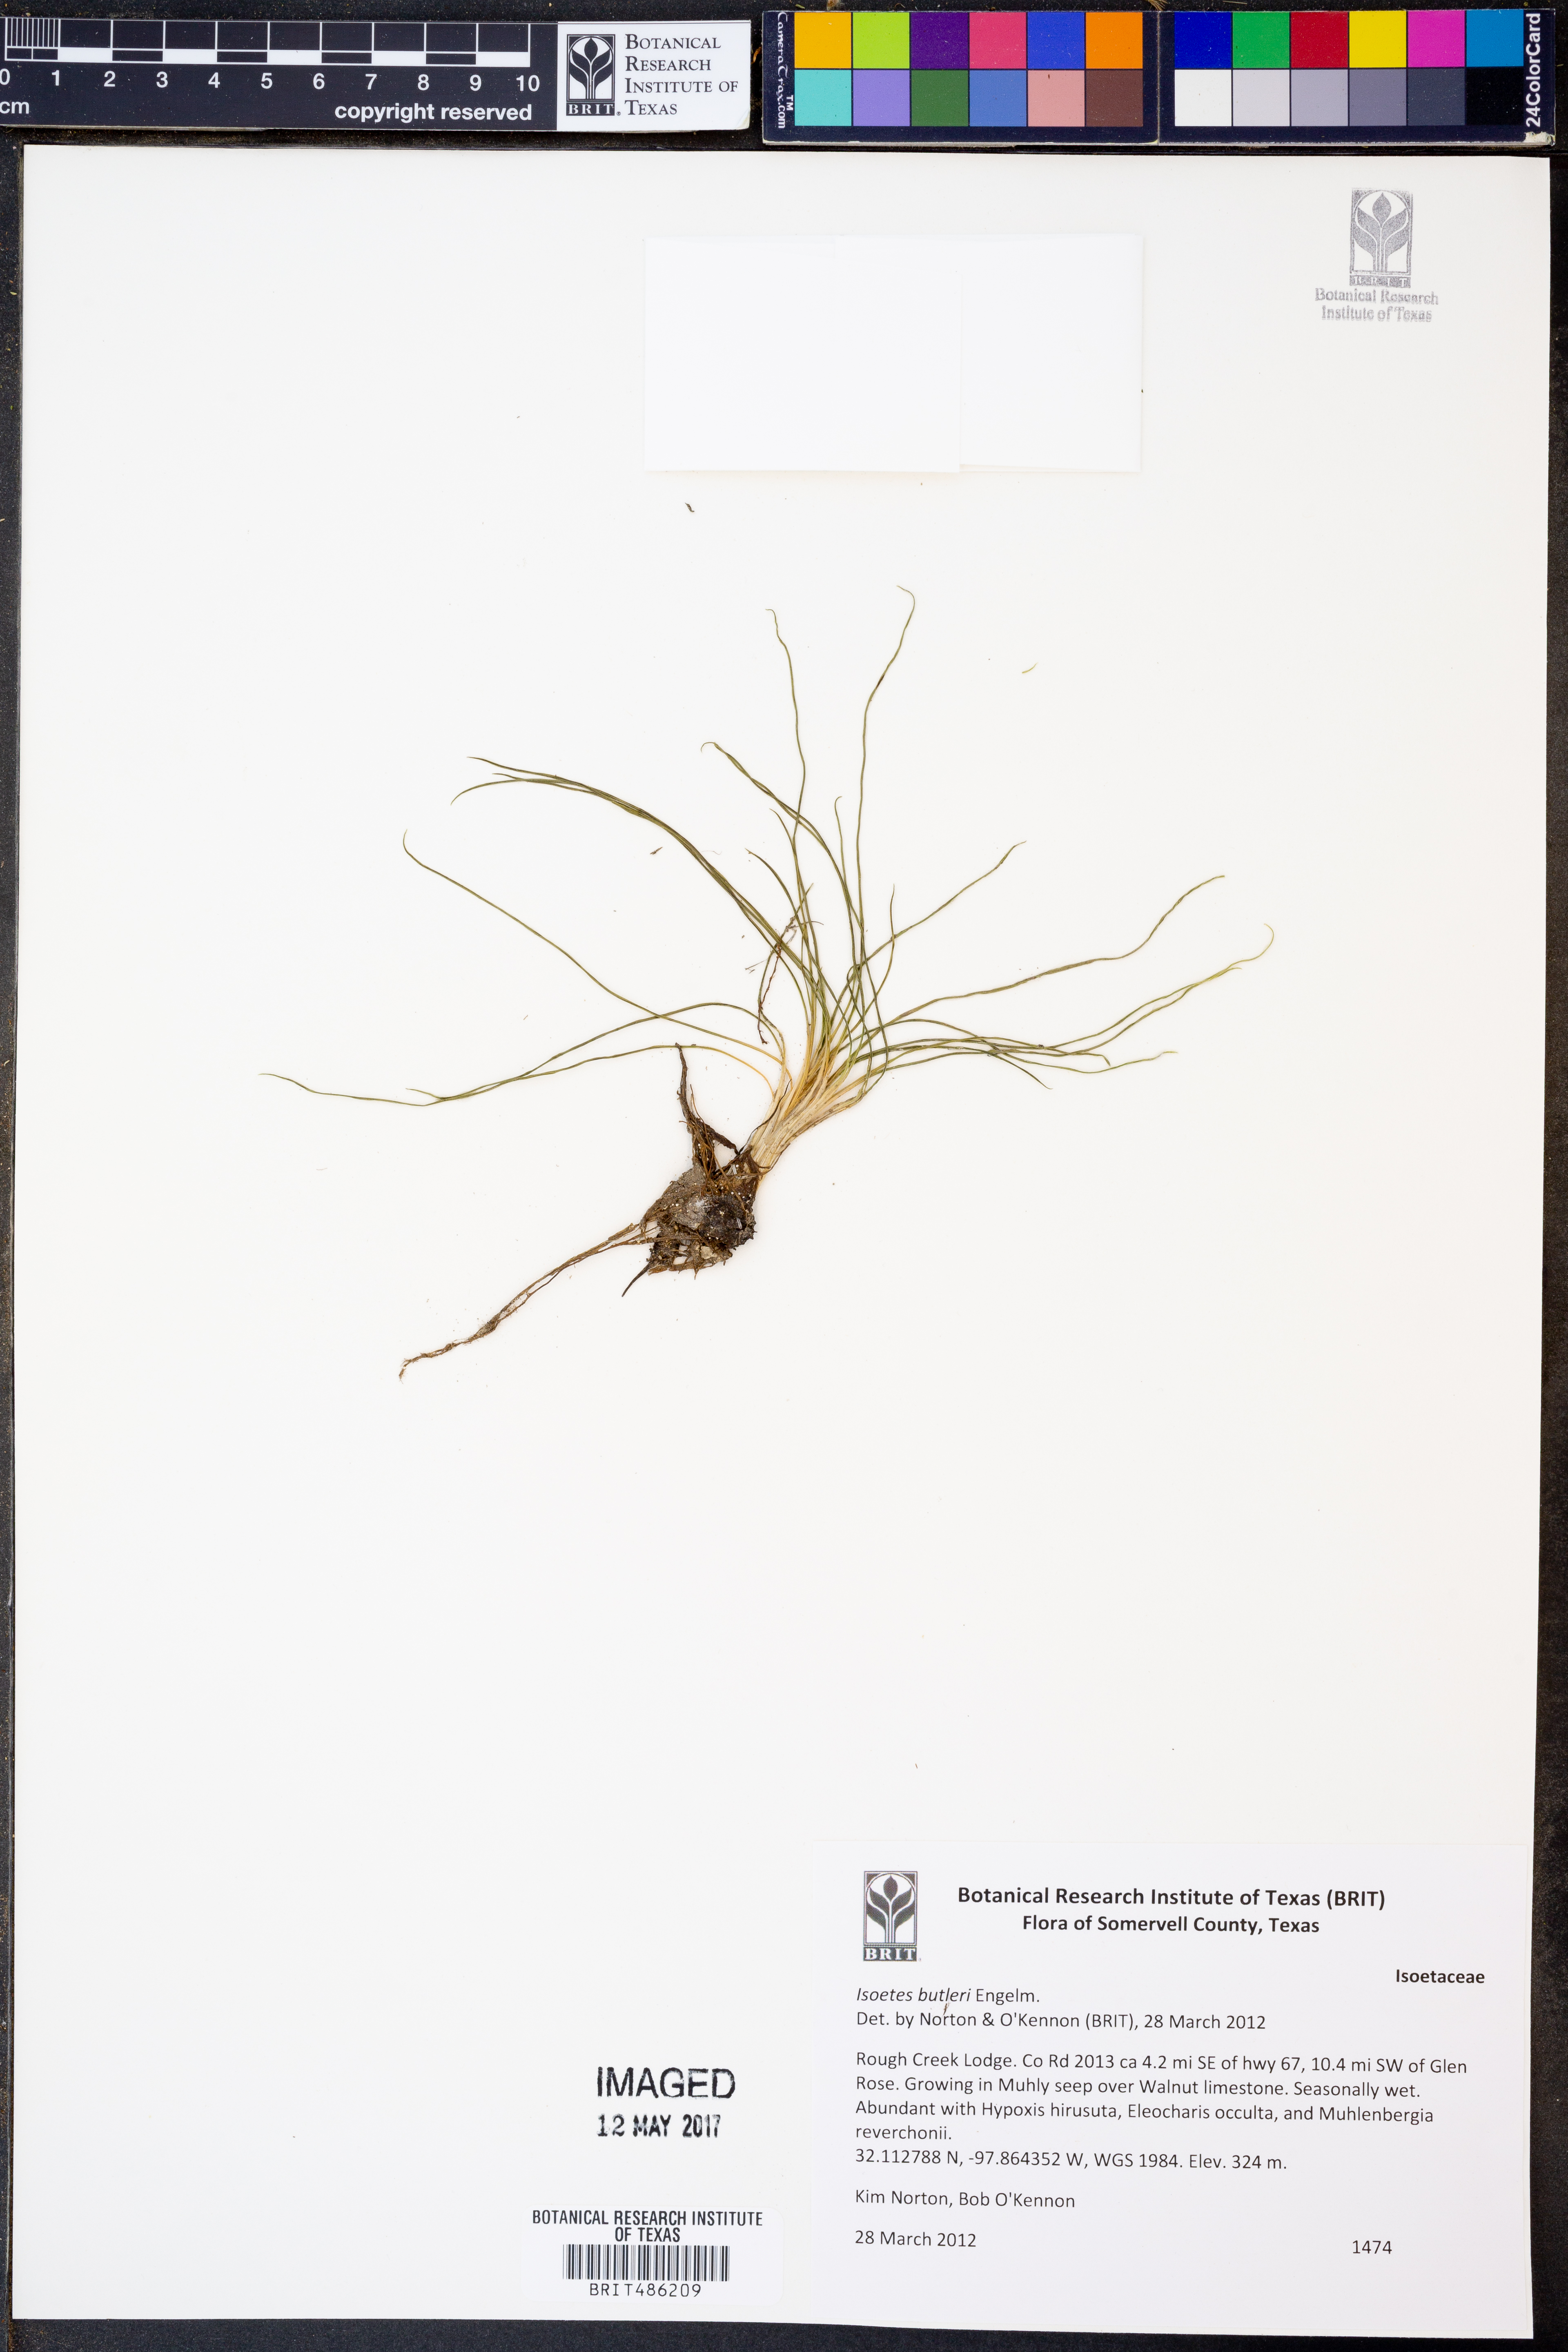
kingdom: Plantae
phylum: Tracheophyta
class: Lycopodiopsida
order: Isoetales
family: Isoetaceae
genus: Isoetes
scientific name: Isoetes butleri
